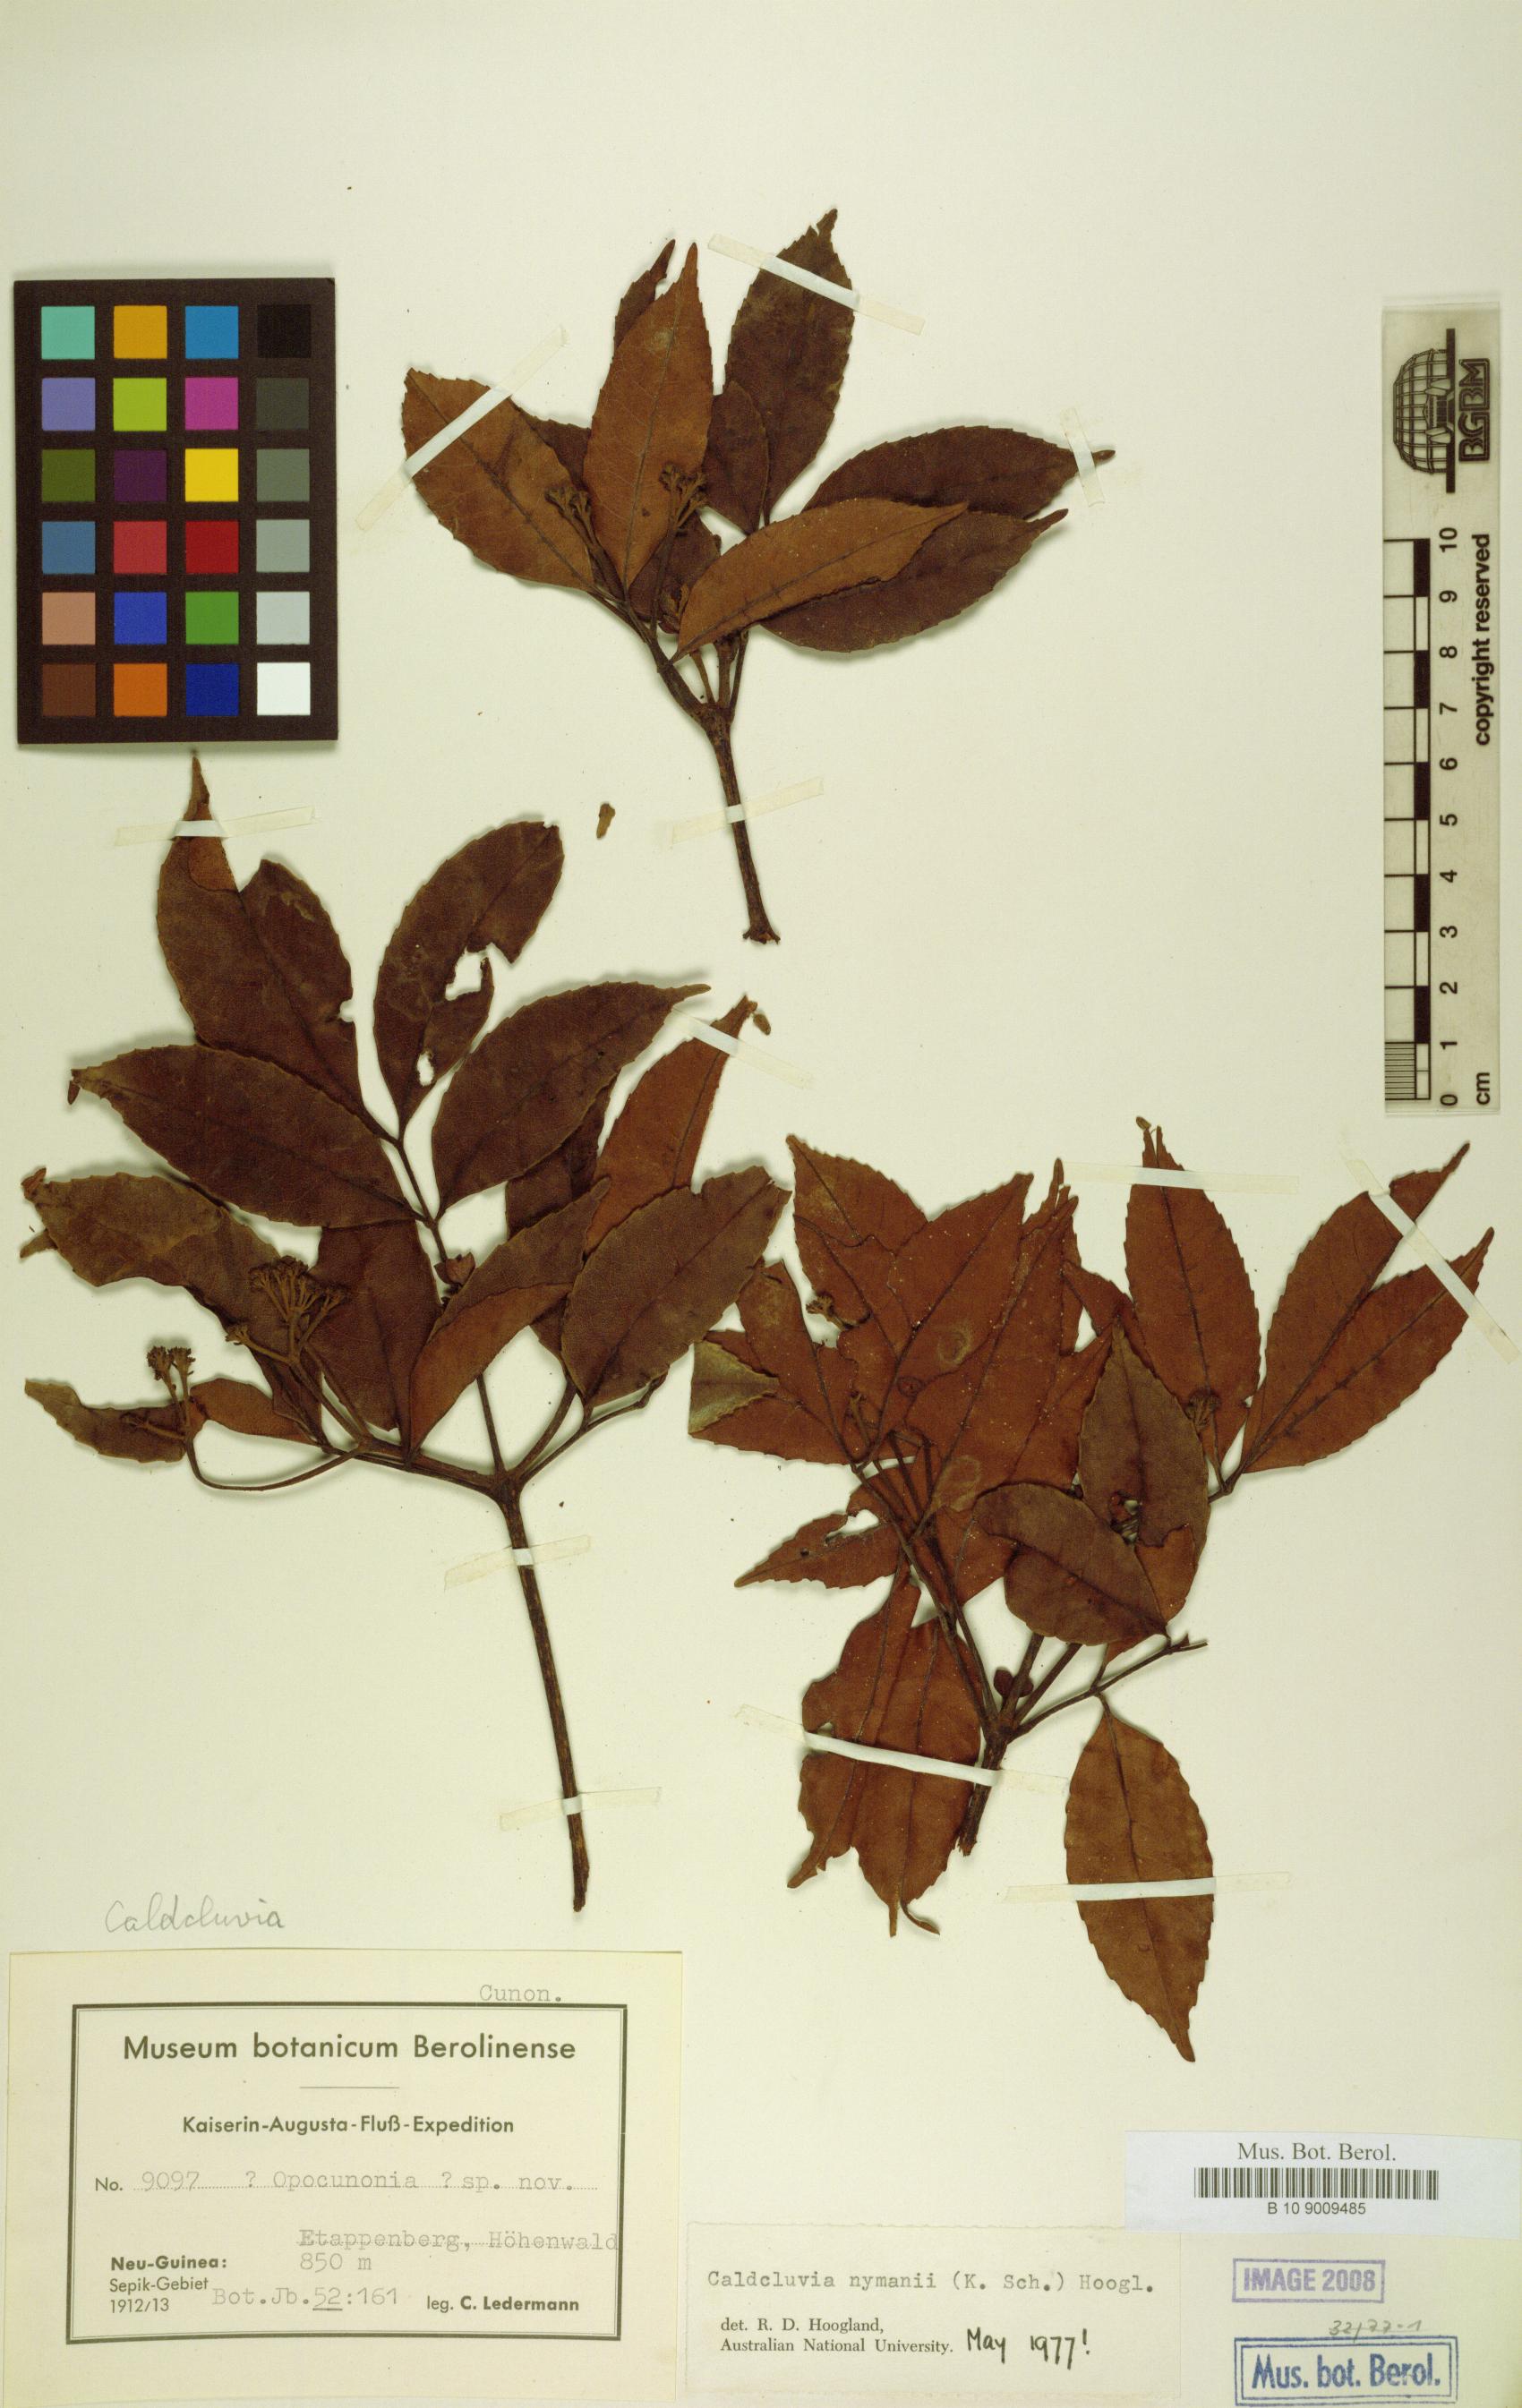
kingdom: Plantae
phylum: Tracheophyta
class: Magnoliopsida
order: Oxalidales
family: Cunoniaceae
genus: Opocunonia
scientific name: Opocunonia nymanii
